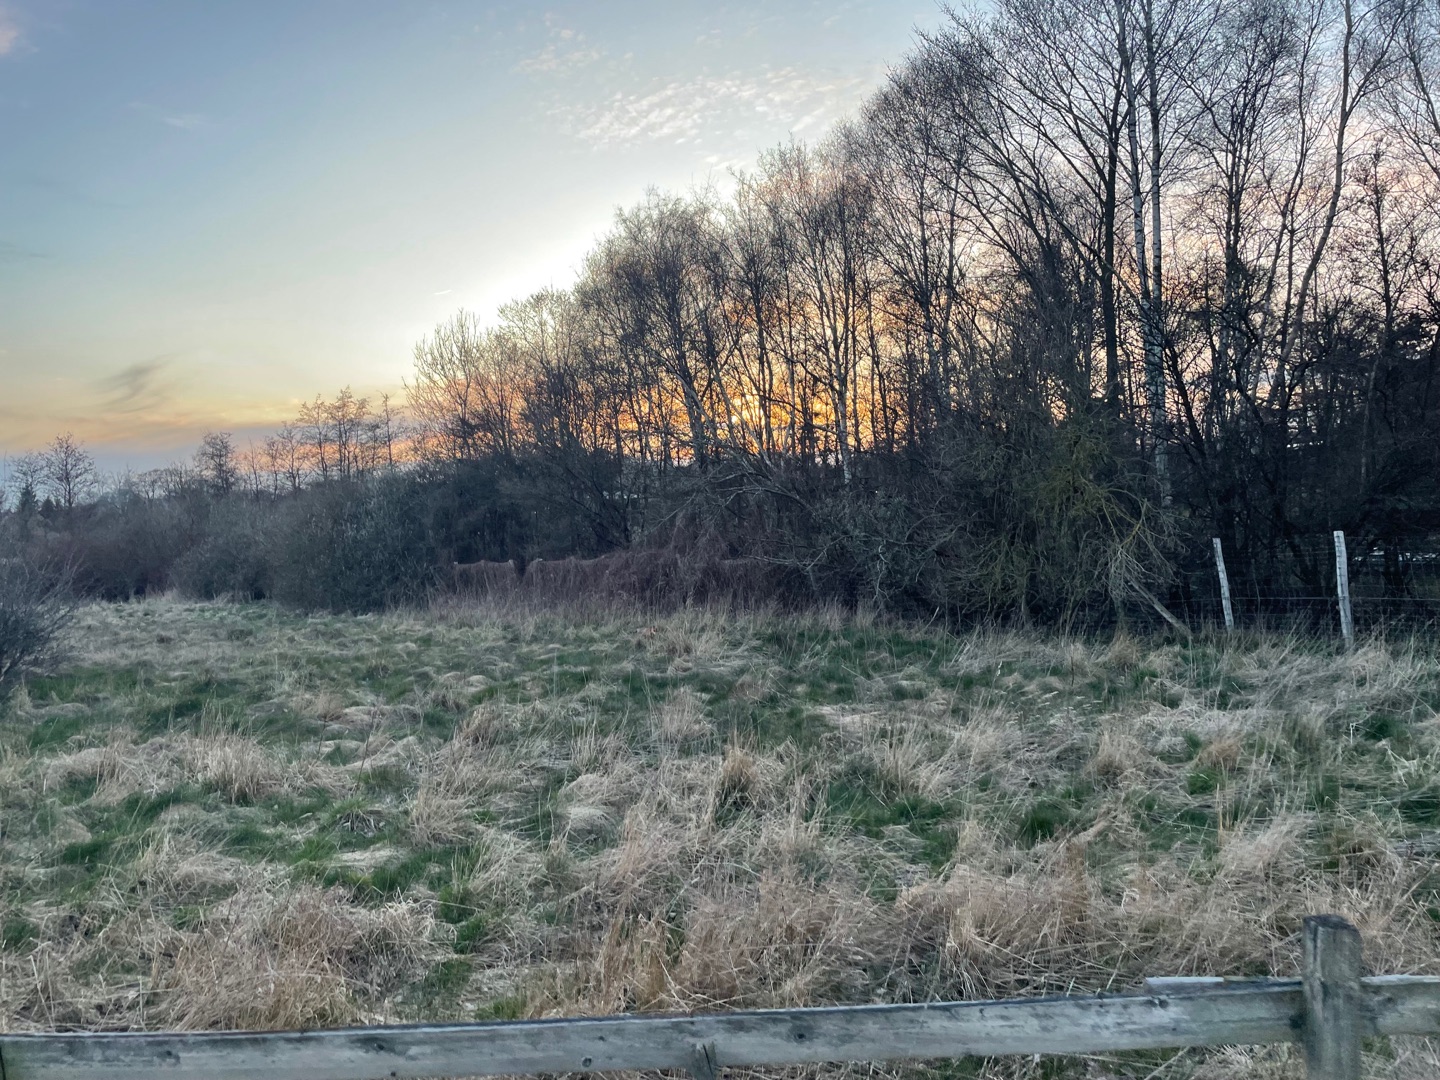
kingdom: Animalia
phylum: Chordata
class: Mammalia
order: Carnivora
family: Canidae
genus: Vulpes
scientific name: Vulpes vulpes
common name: Ræv
